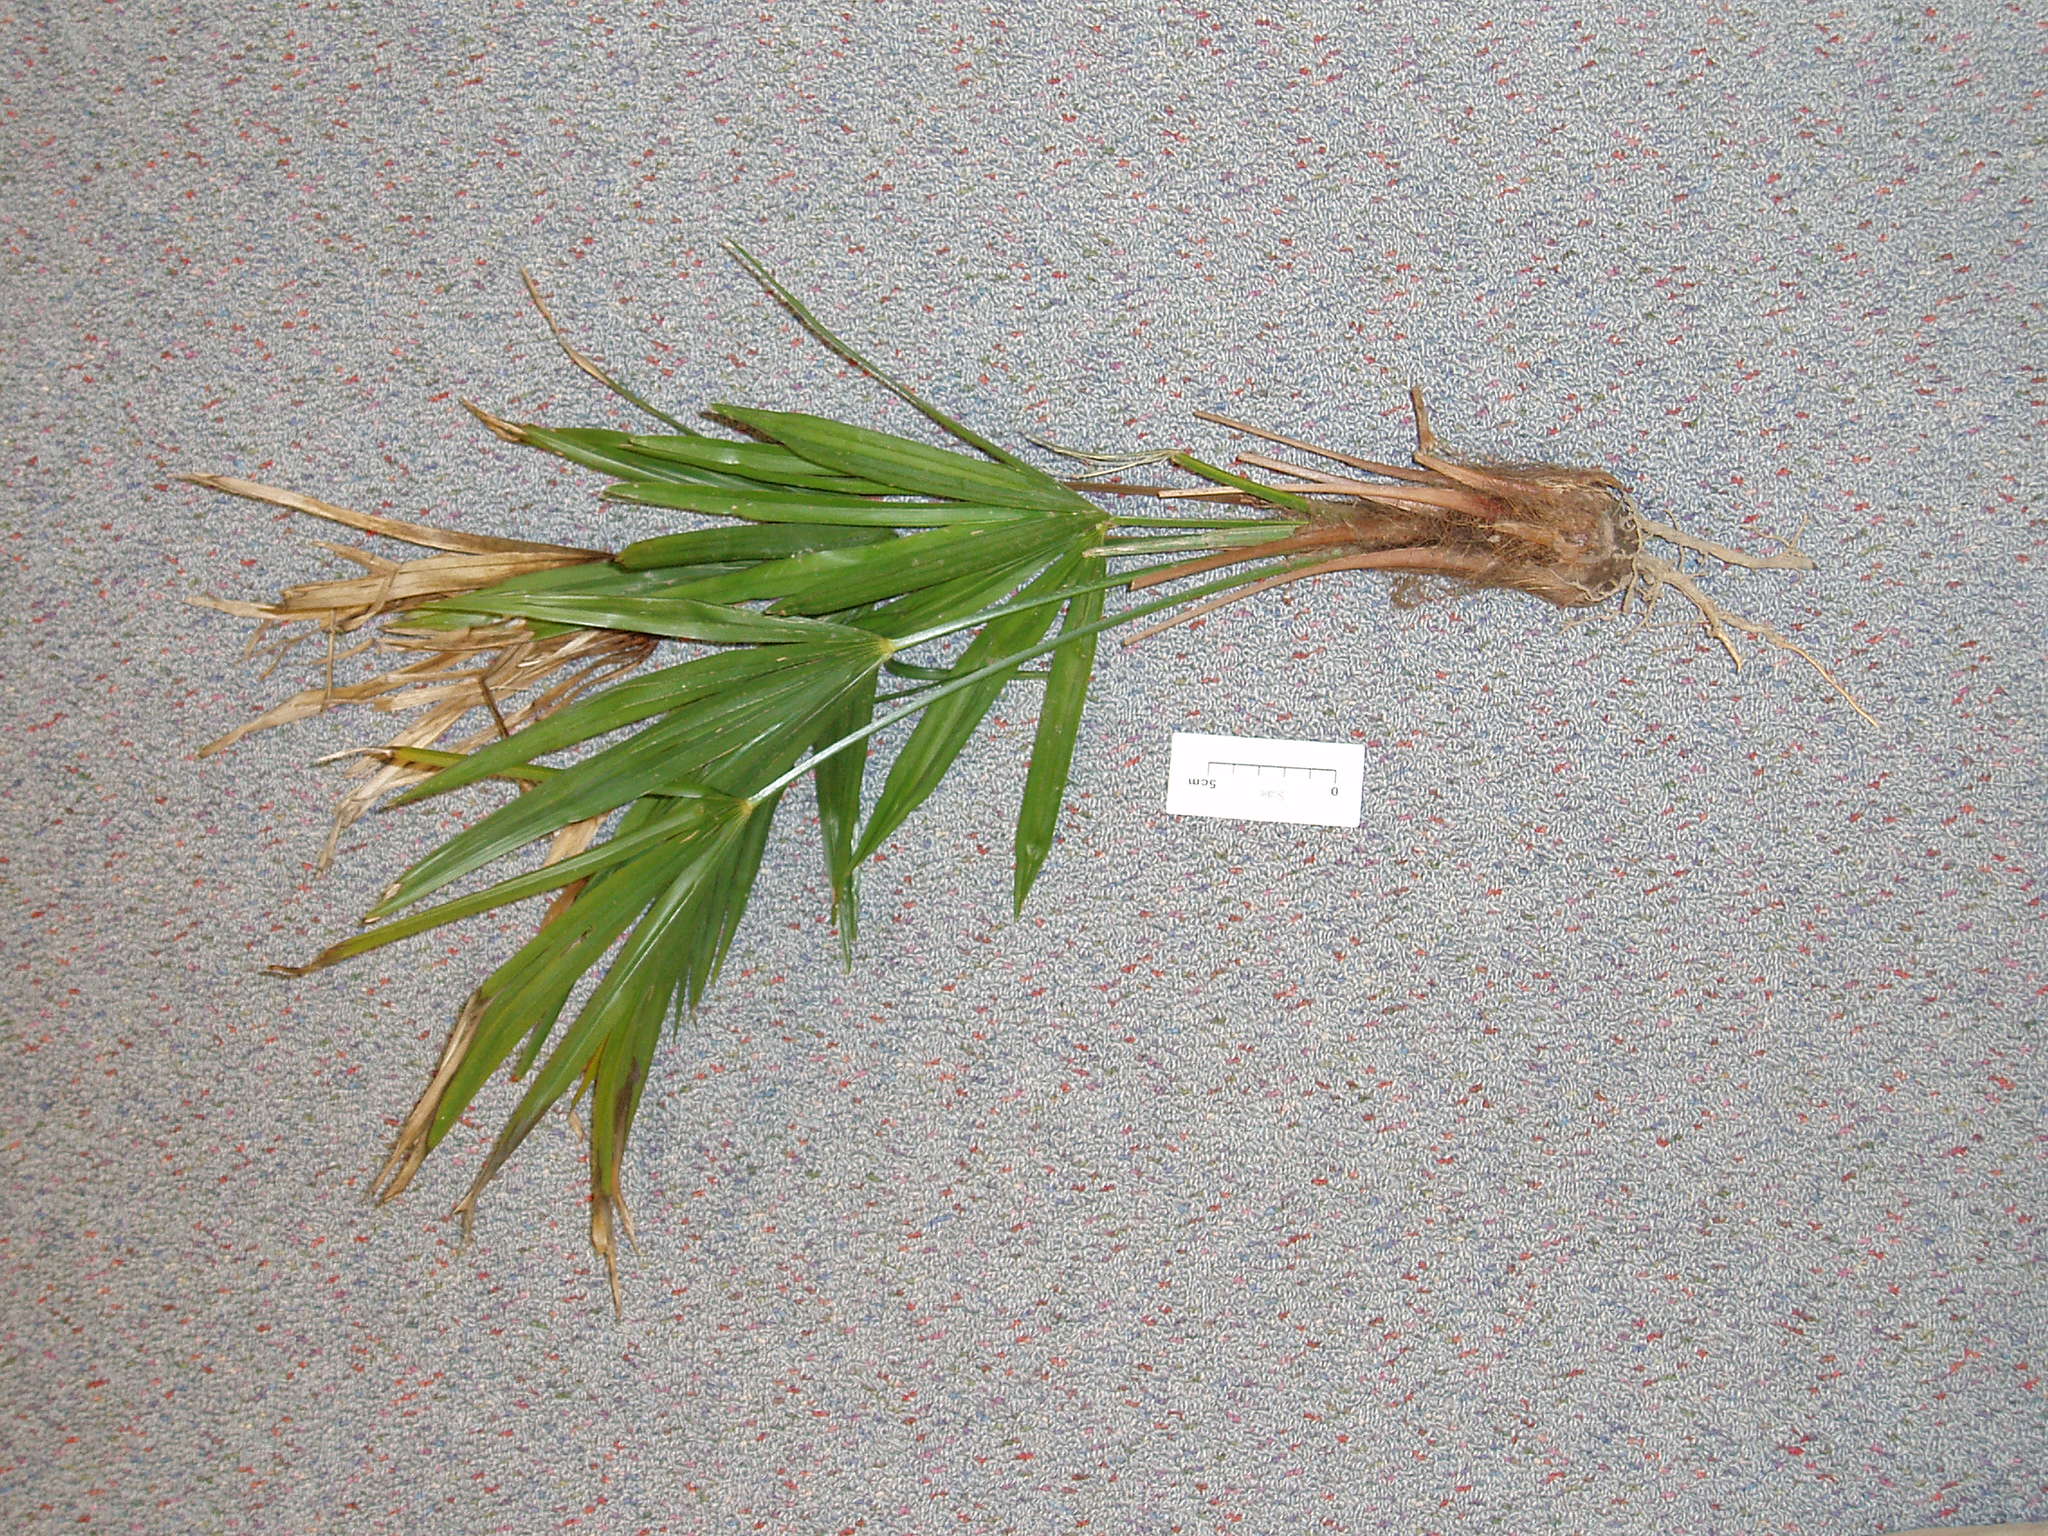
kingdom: Plantae
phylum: Tracheophyta
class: Liliopsida
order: Arecales
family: Arecaceae
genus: Trachycarpus
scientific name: Trachycarpus fortunei
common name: Chusan palm
